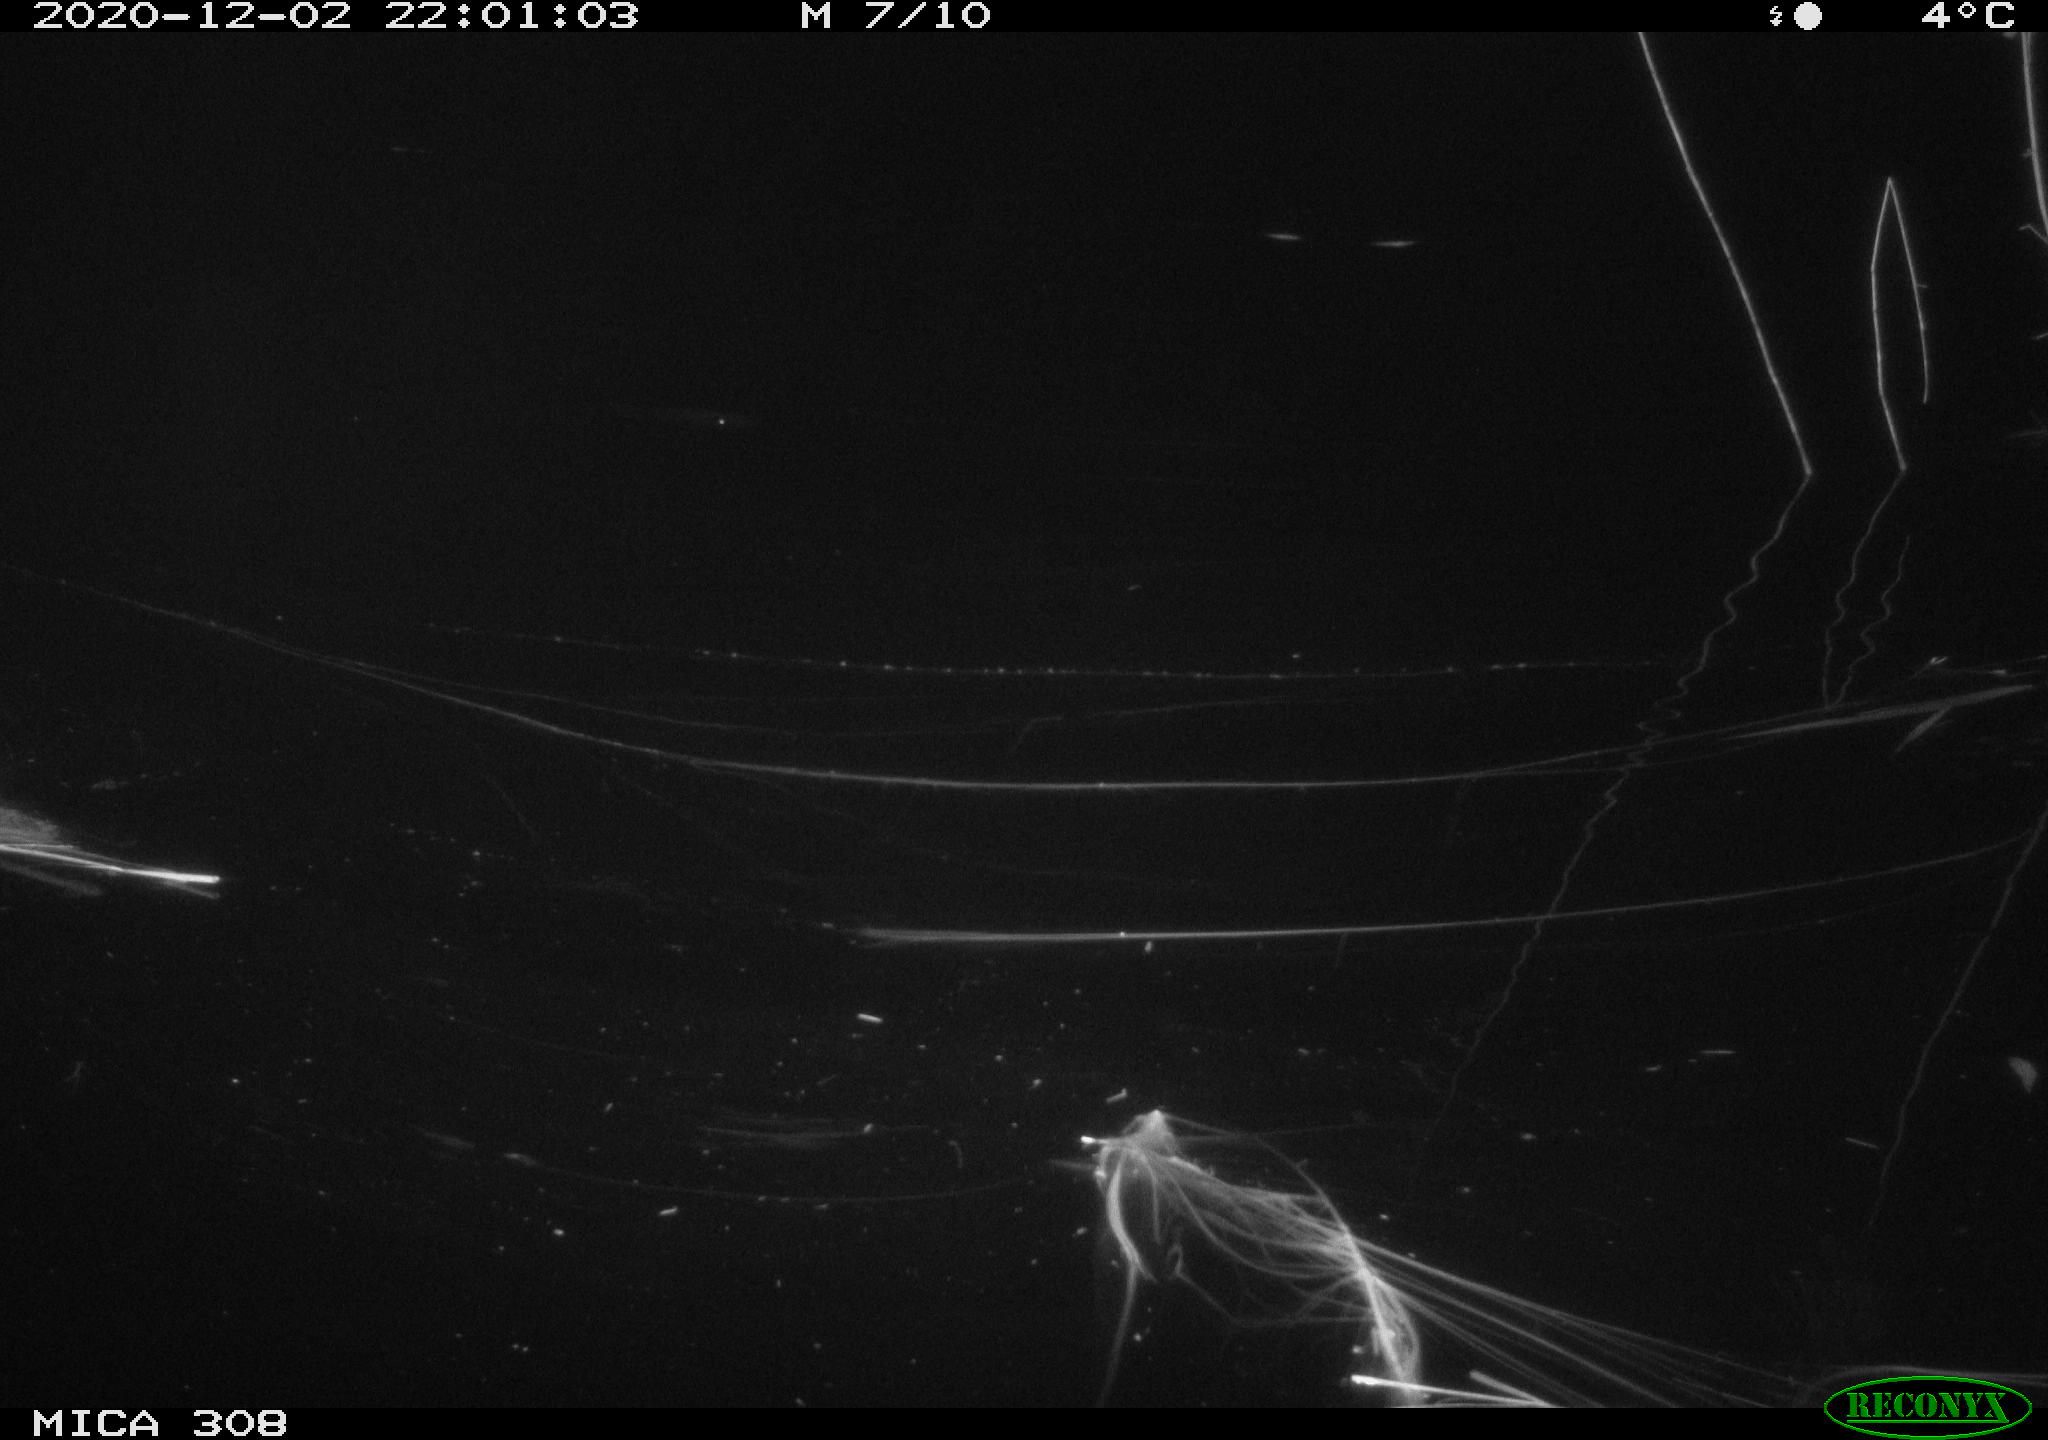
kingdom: Animalia
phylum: Chordata
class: Mammalia
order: Rodentia
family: Muridae
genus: Rattus
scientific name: Rattus norvegicus
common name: Brown rat
